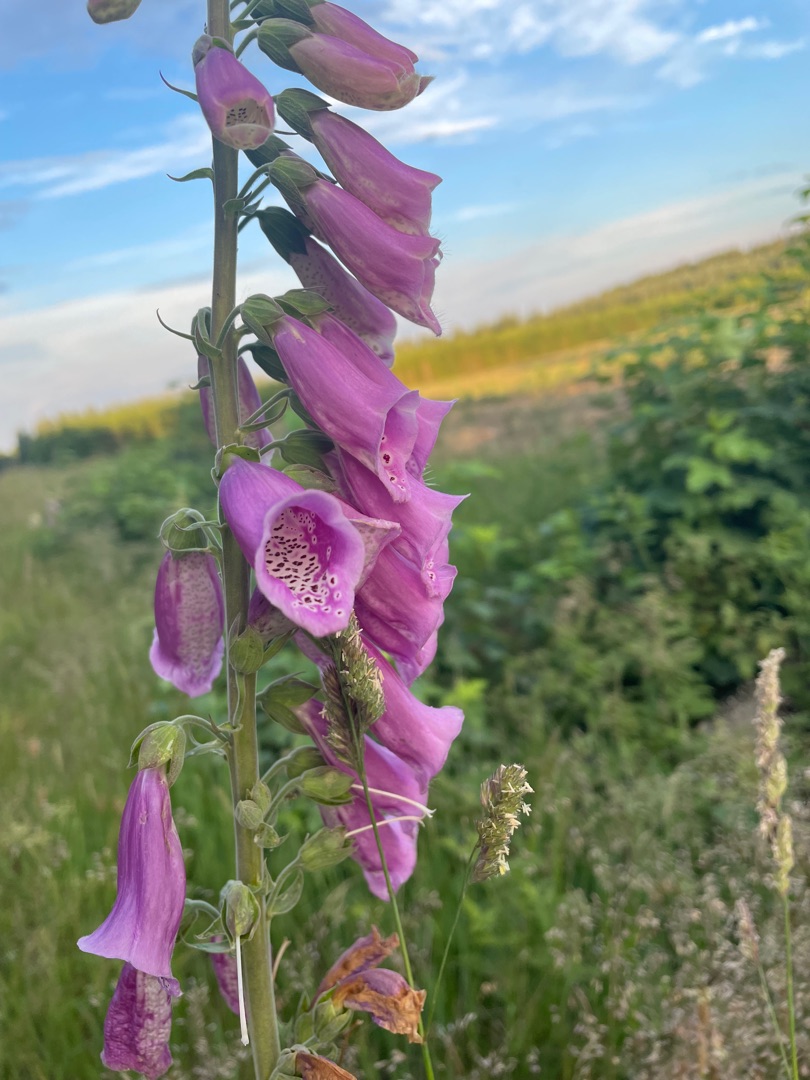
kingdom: Plantae
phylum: Tracheophyta
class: Magnoliopsida
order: Lamiales
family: Plantaginaceae
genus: Digitalis
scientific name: Digitalis purpurea
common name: Almindelig fingerbøl
